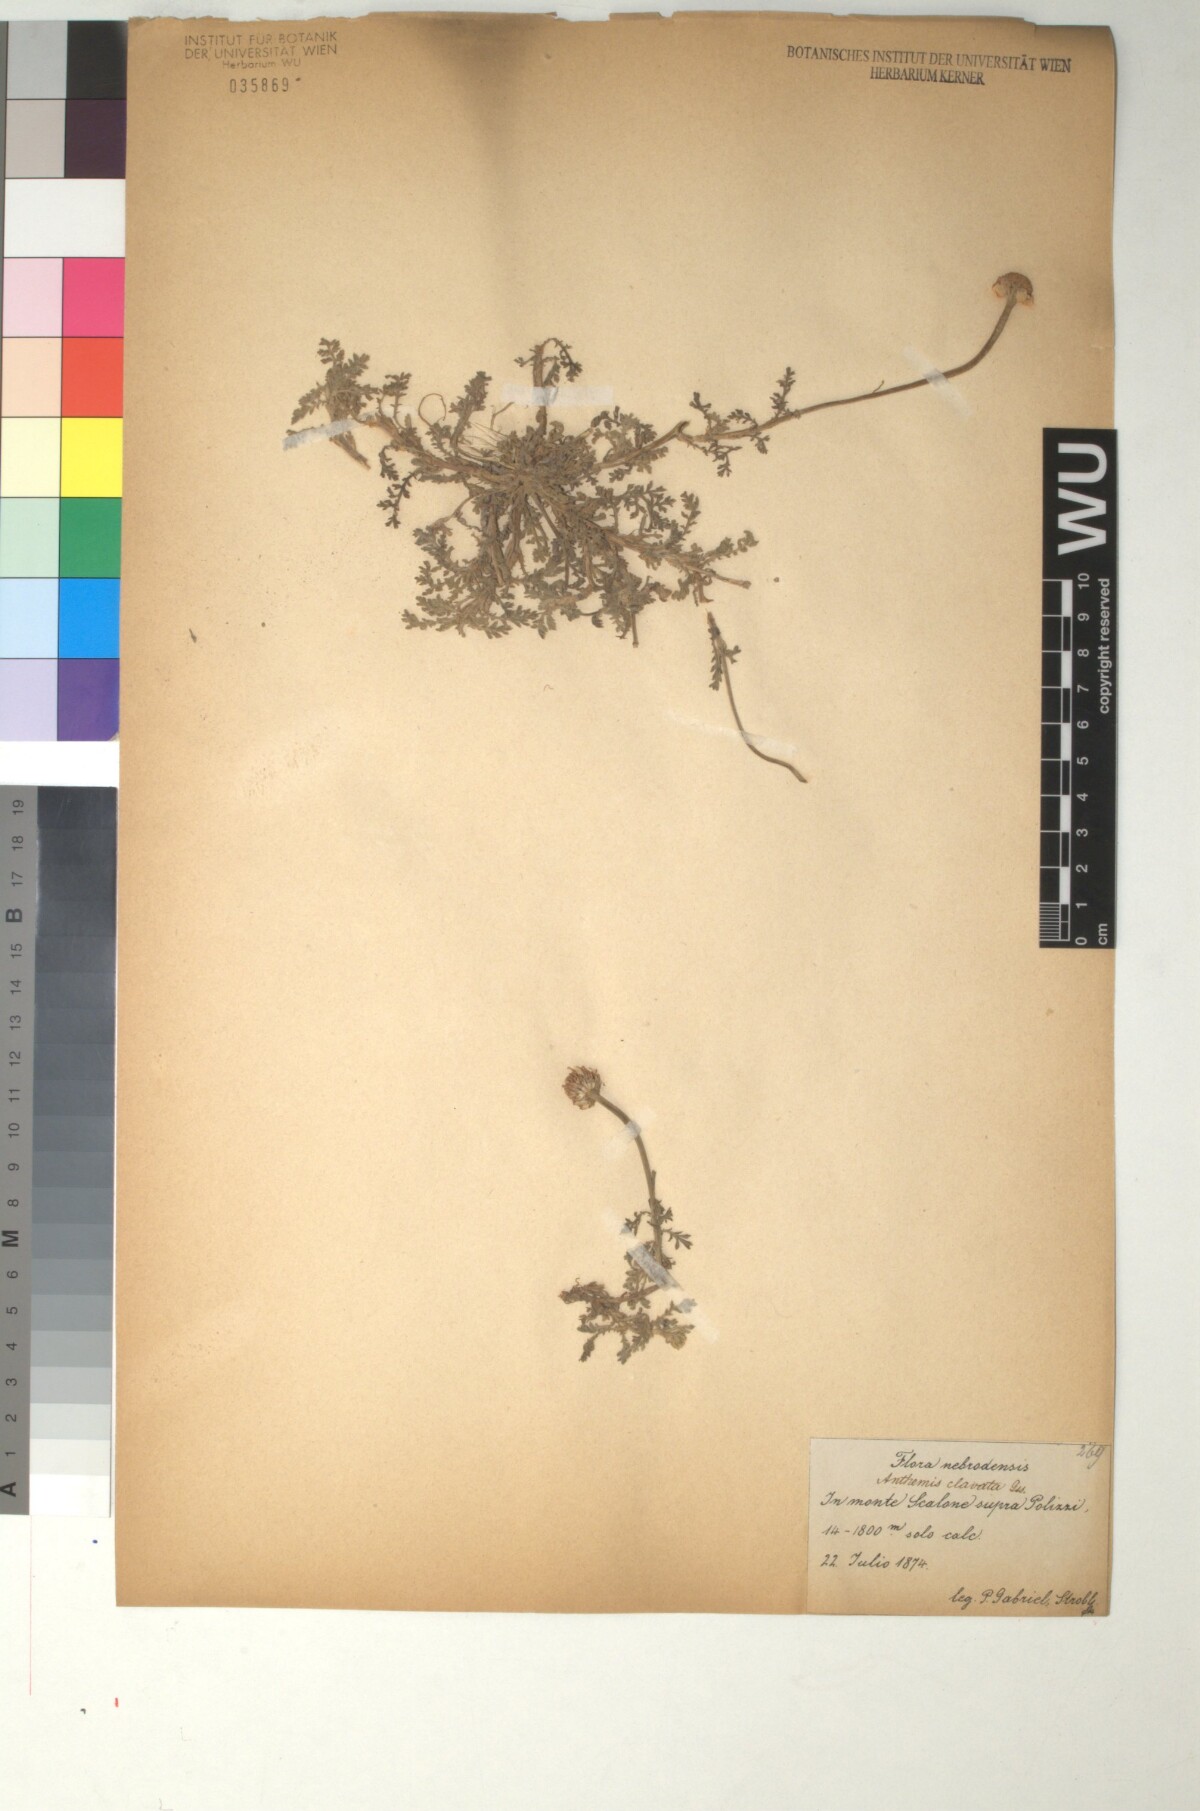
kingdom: Plantae
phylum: Tracheophyta
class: Magnoliopsida
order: Asterales
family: Asteraceae
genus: Anthemis
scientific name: Anthemis arvensis
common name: Corn chamomile
